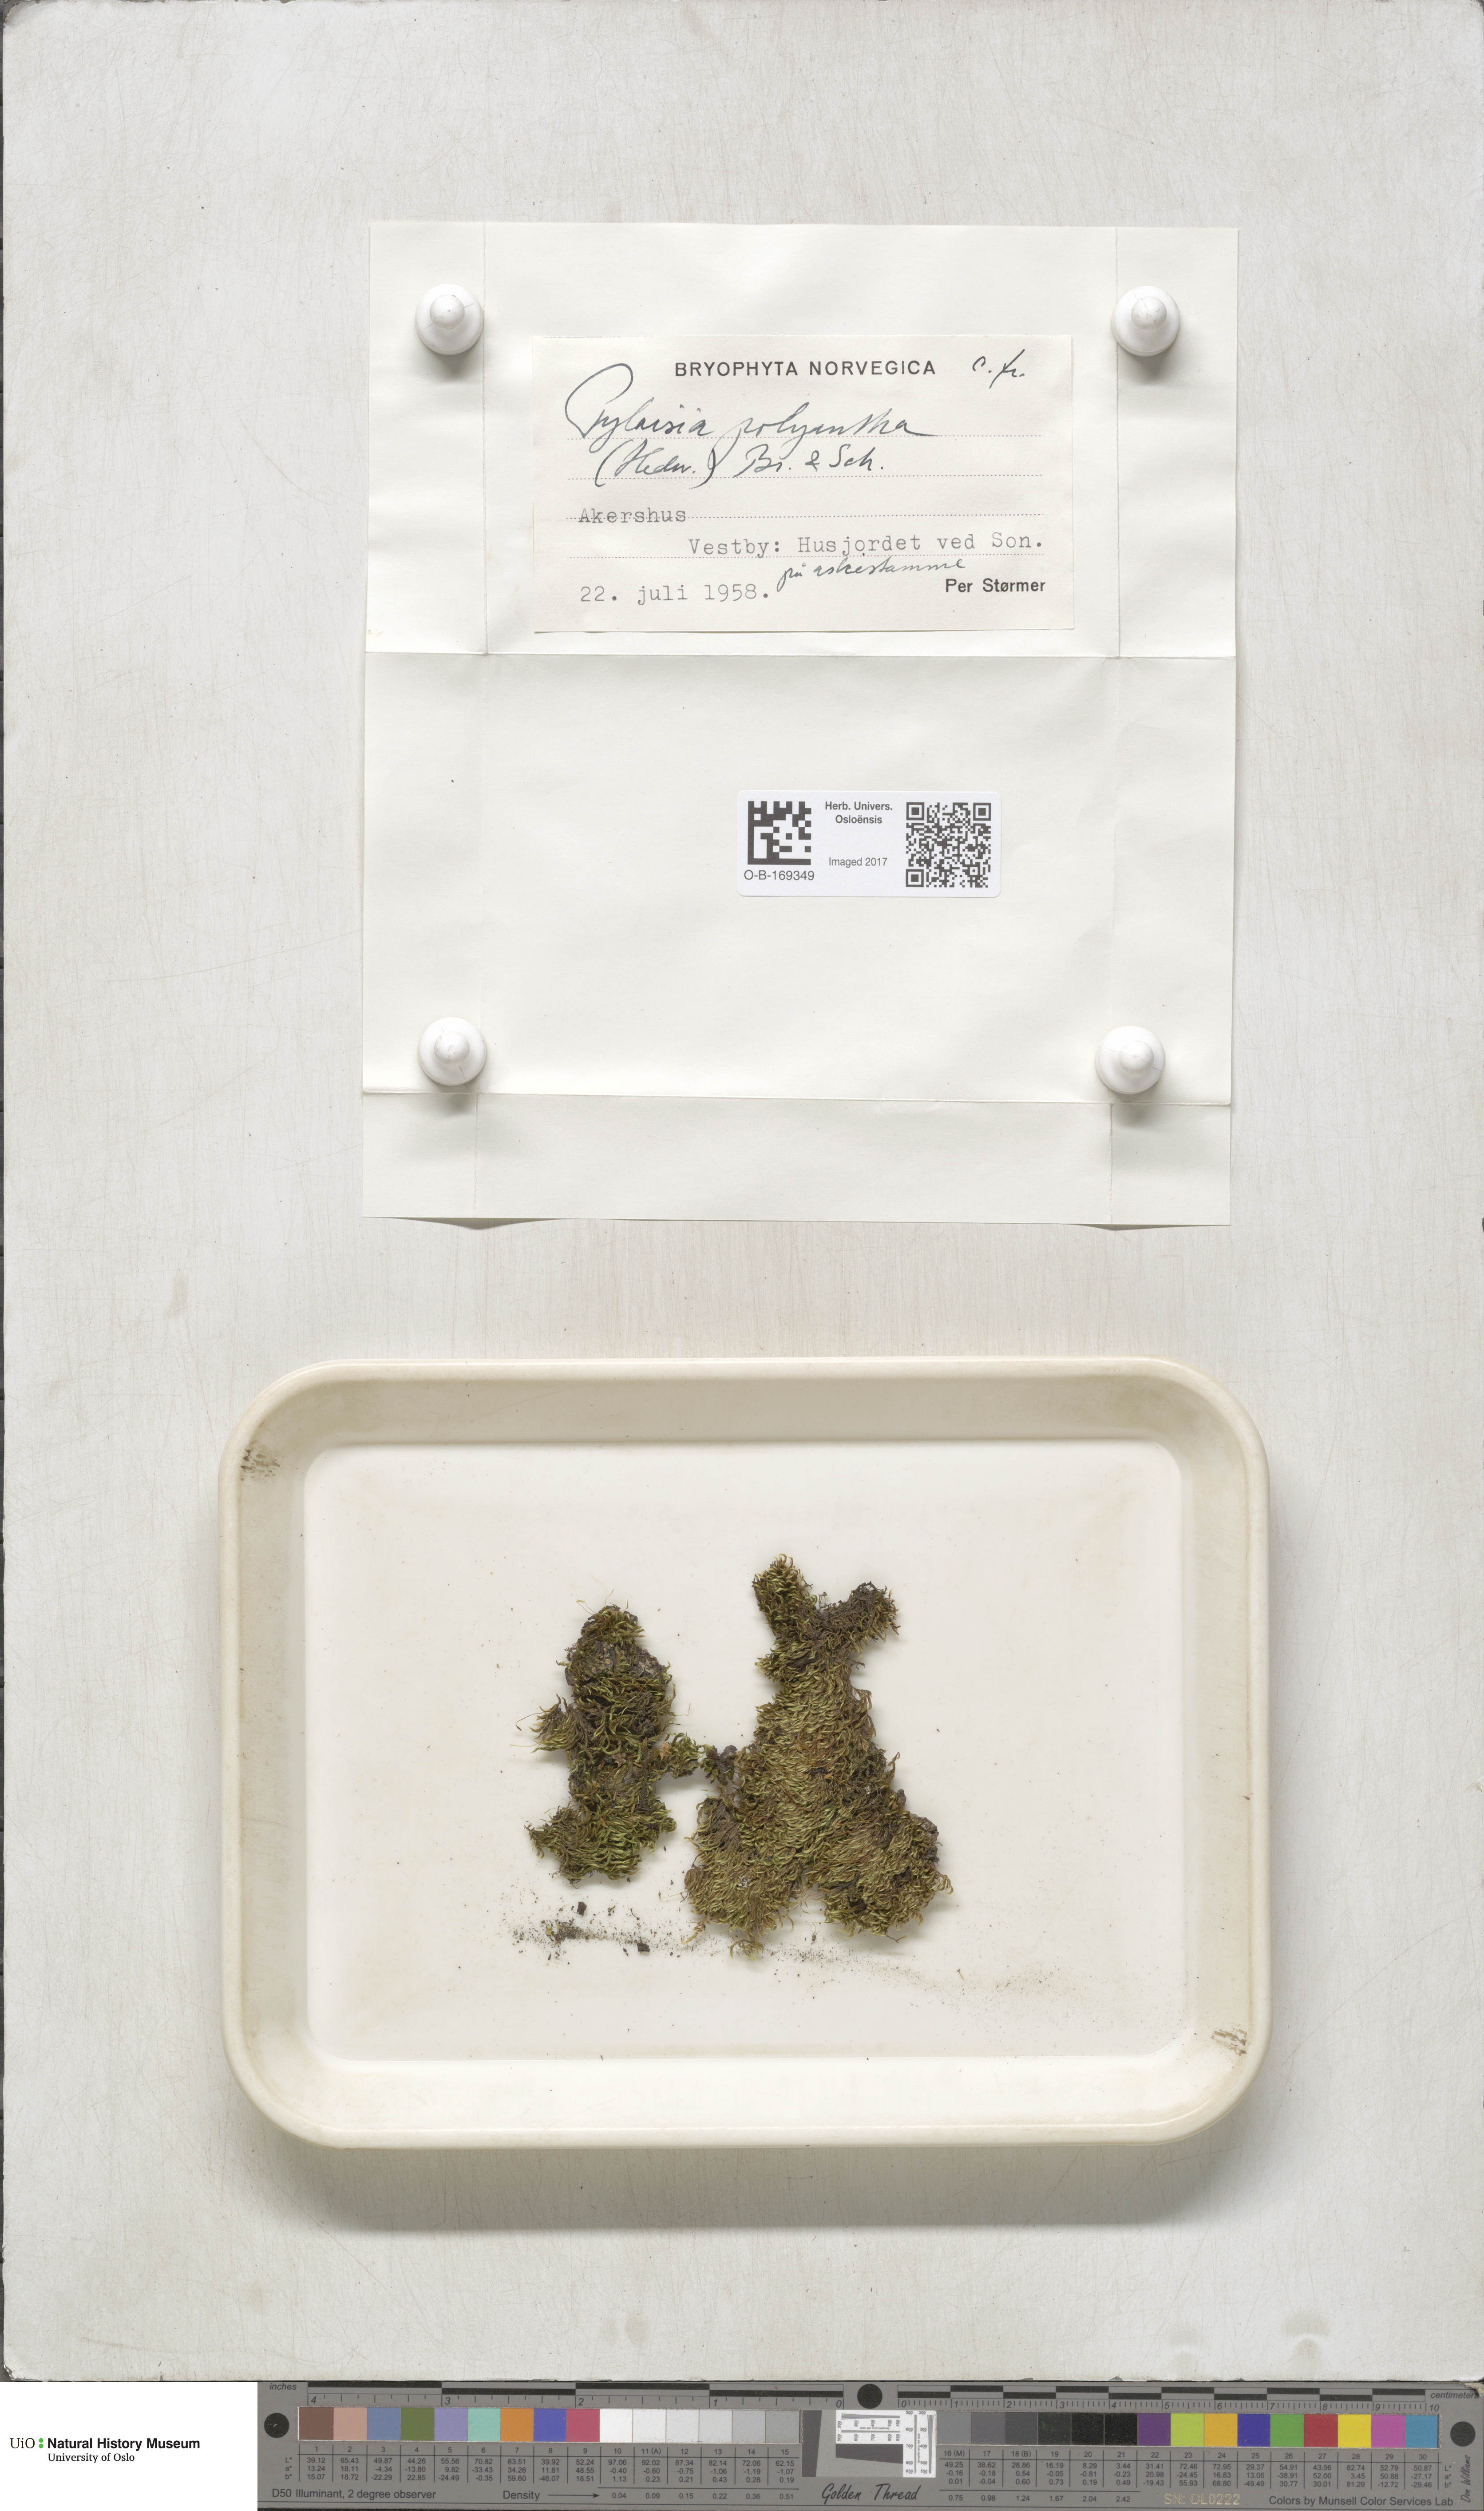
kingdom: Plantae
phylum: Bryophyta
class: Bryopsida
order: Hypnales
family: Pylaisiaceae
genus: Pylaisia
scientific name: Pylaisia polyantha
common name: Many-flowered leskea
